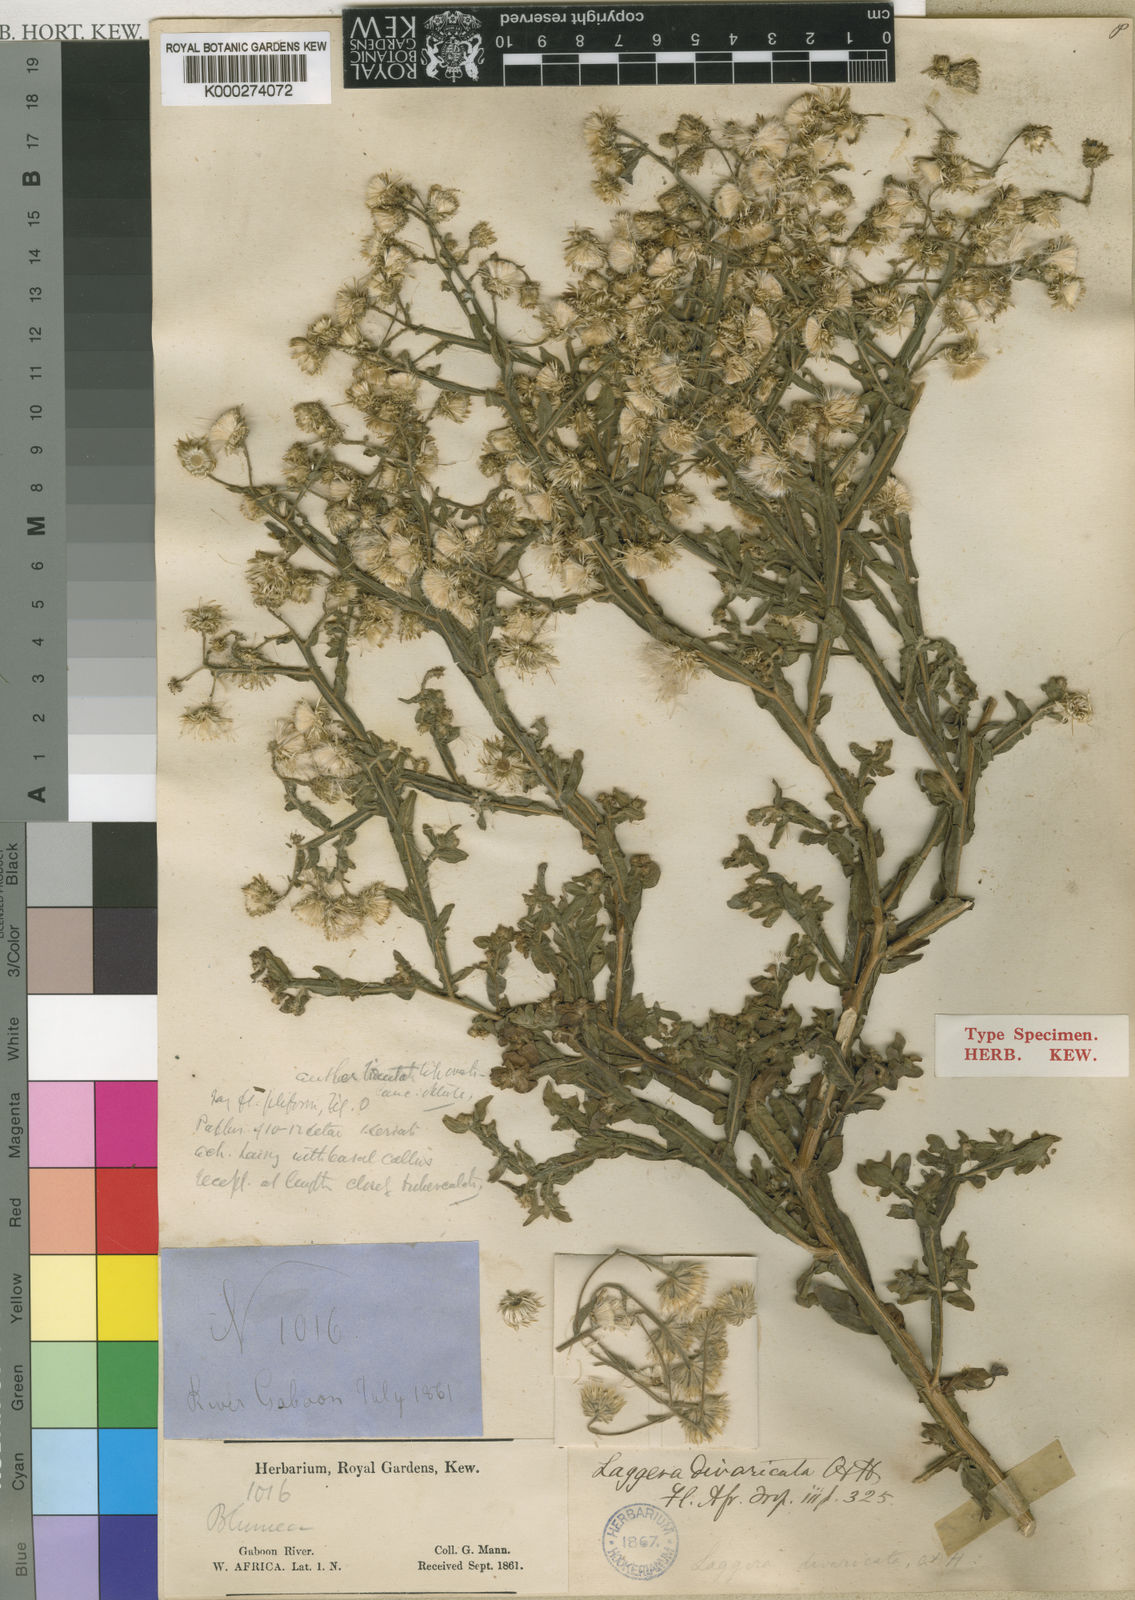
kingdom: Plantae
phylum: Tracheophyta
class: Magnoliopsida
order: Asterales
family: Asteraceae
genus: Laggera
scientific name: Laggera divaricata
